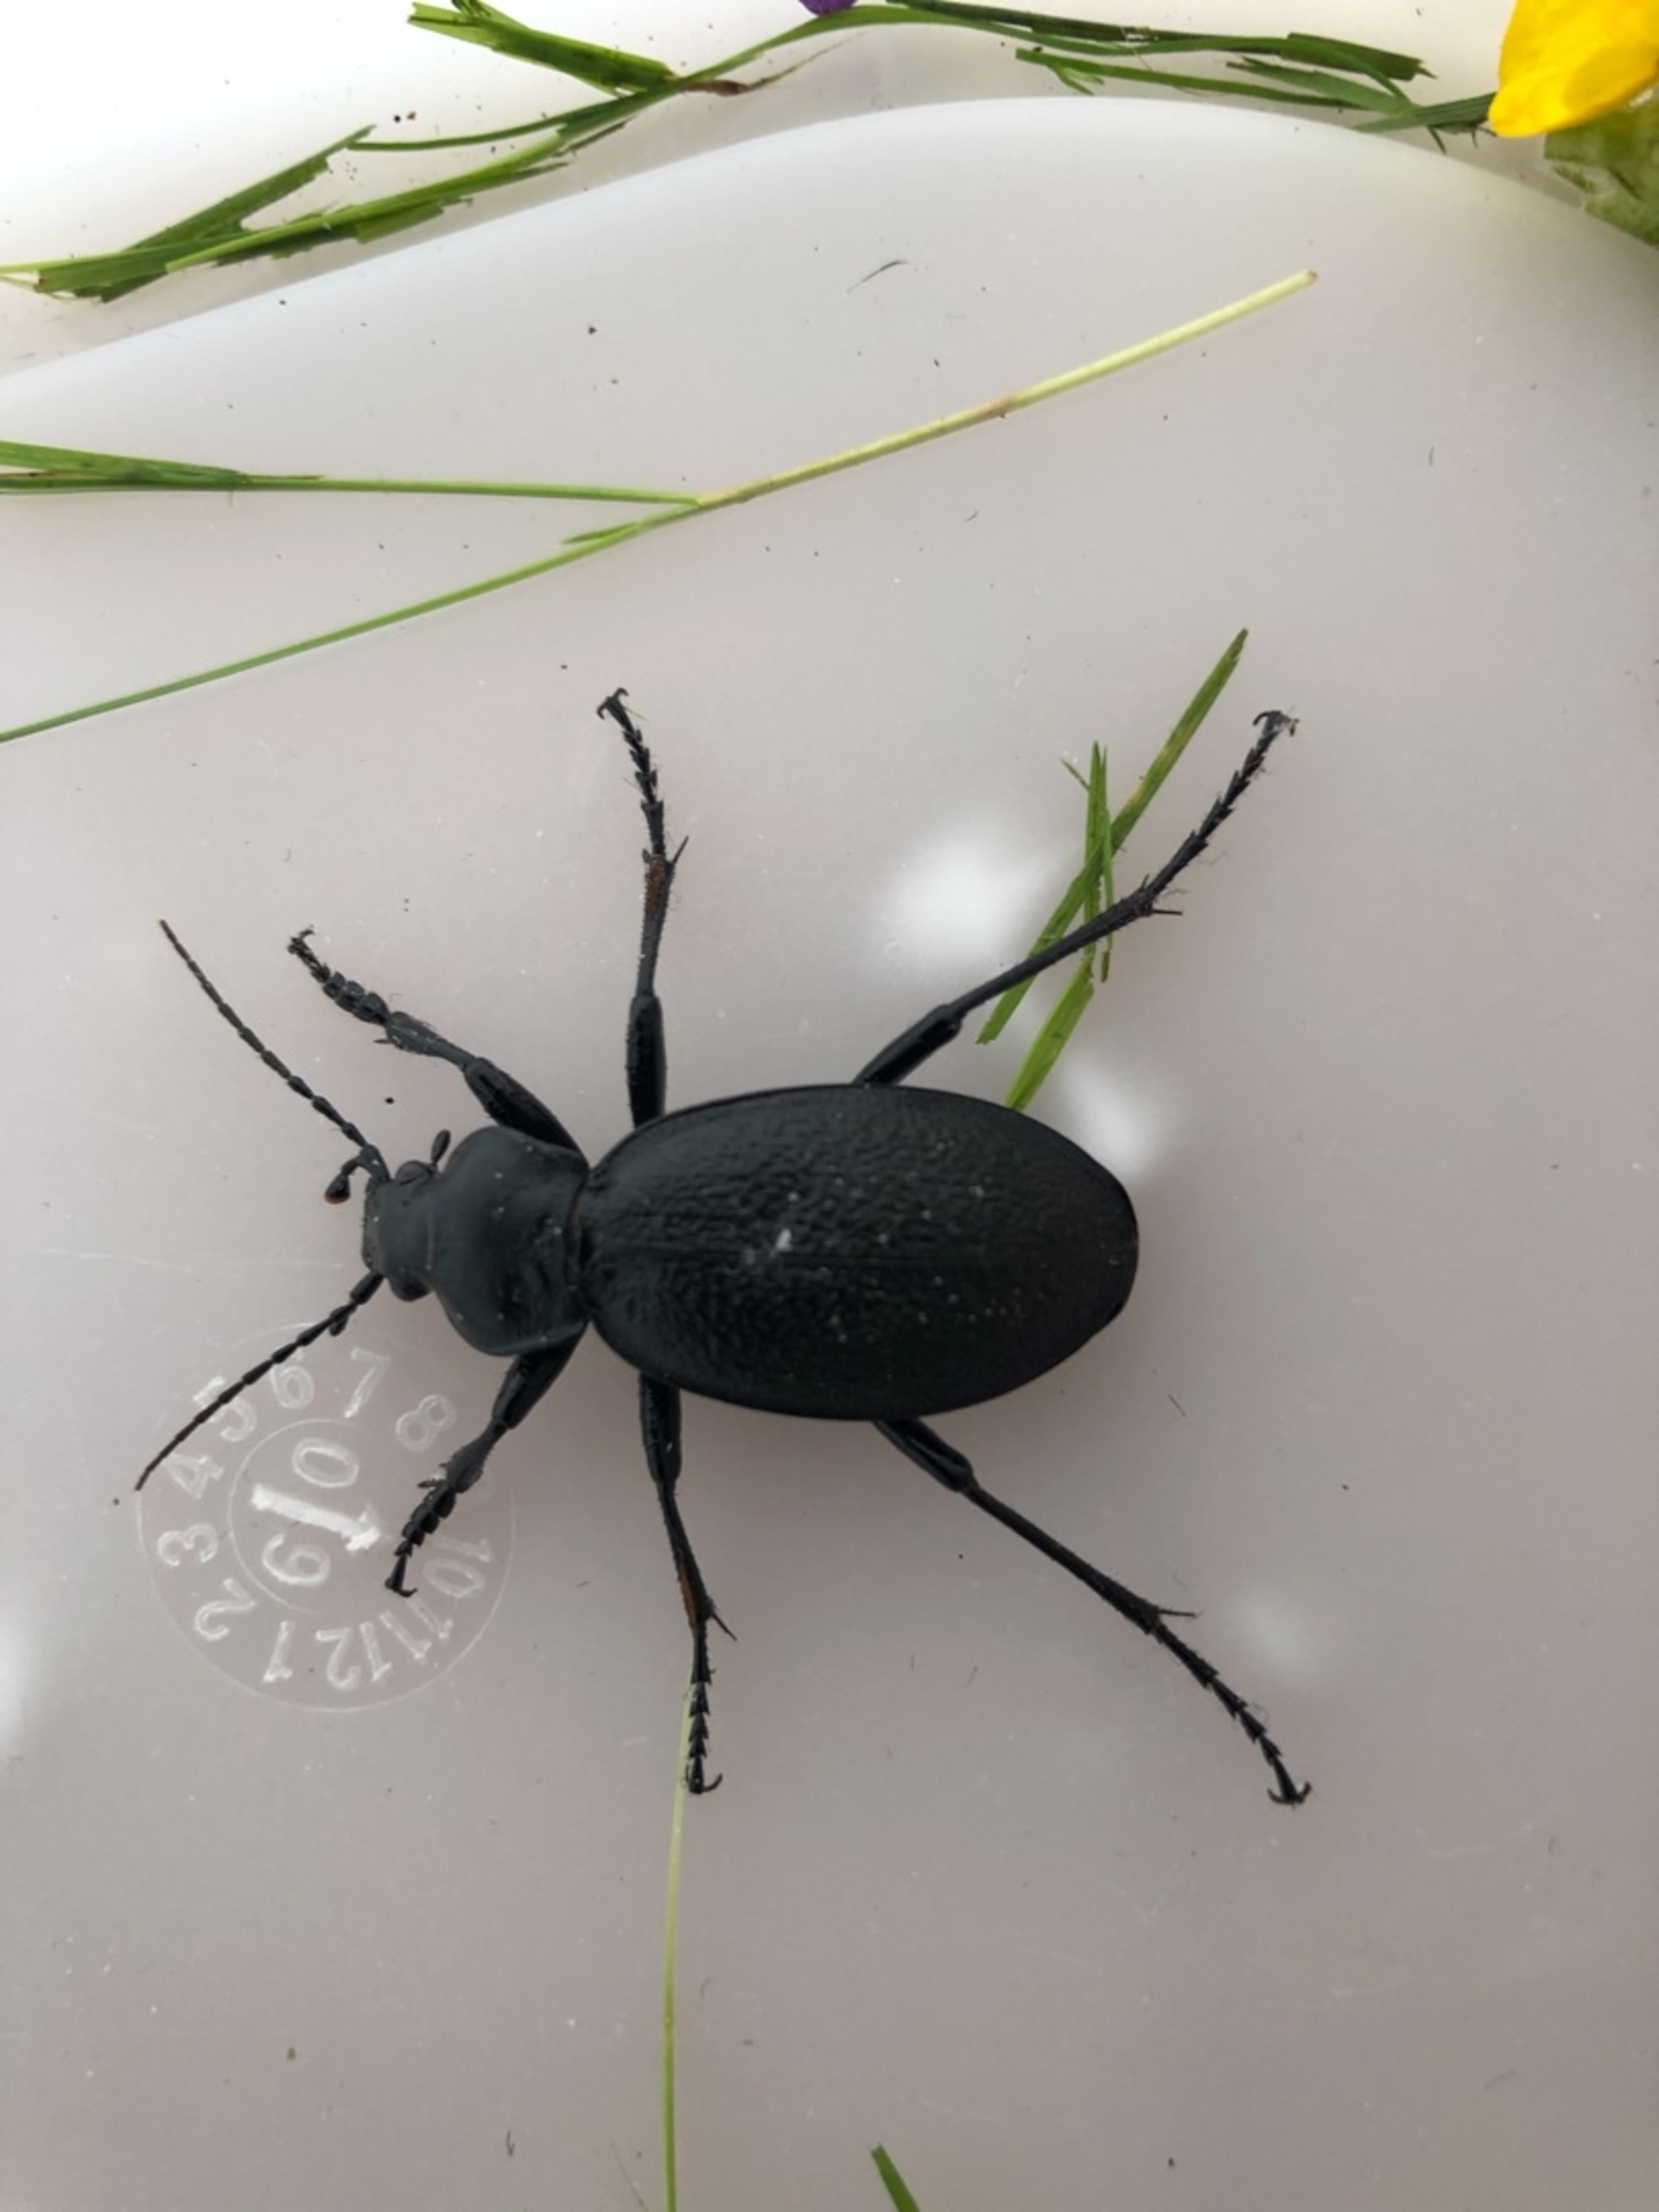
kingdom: Animalia
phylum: Arthropoda
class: Insecta
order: Coleoptera
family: Carabidae
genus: Carabus
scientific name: Carabus coriaceus
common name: Læderløber
